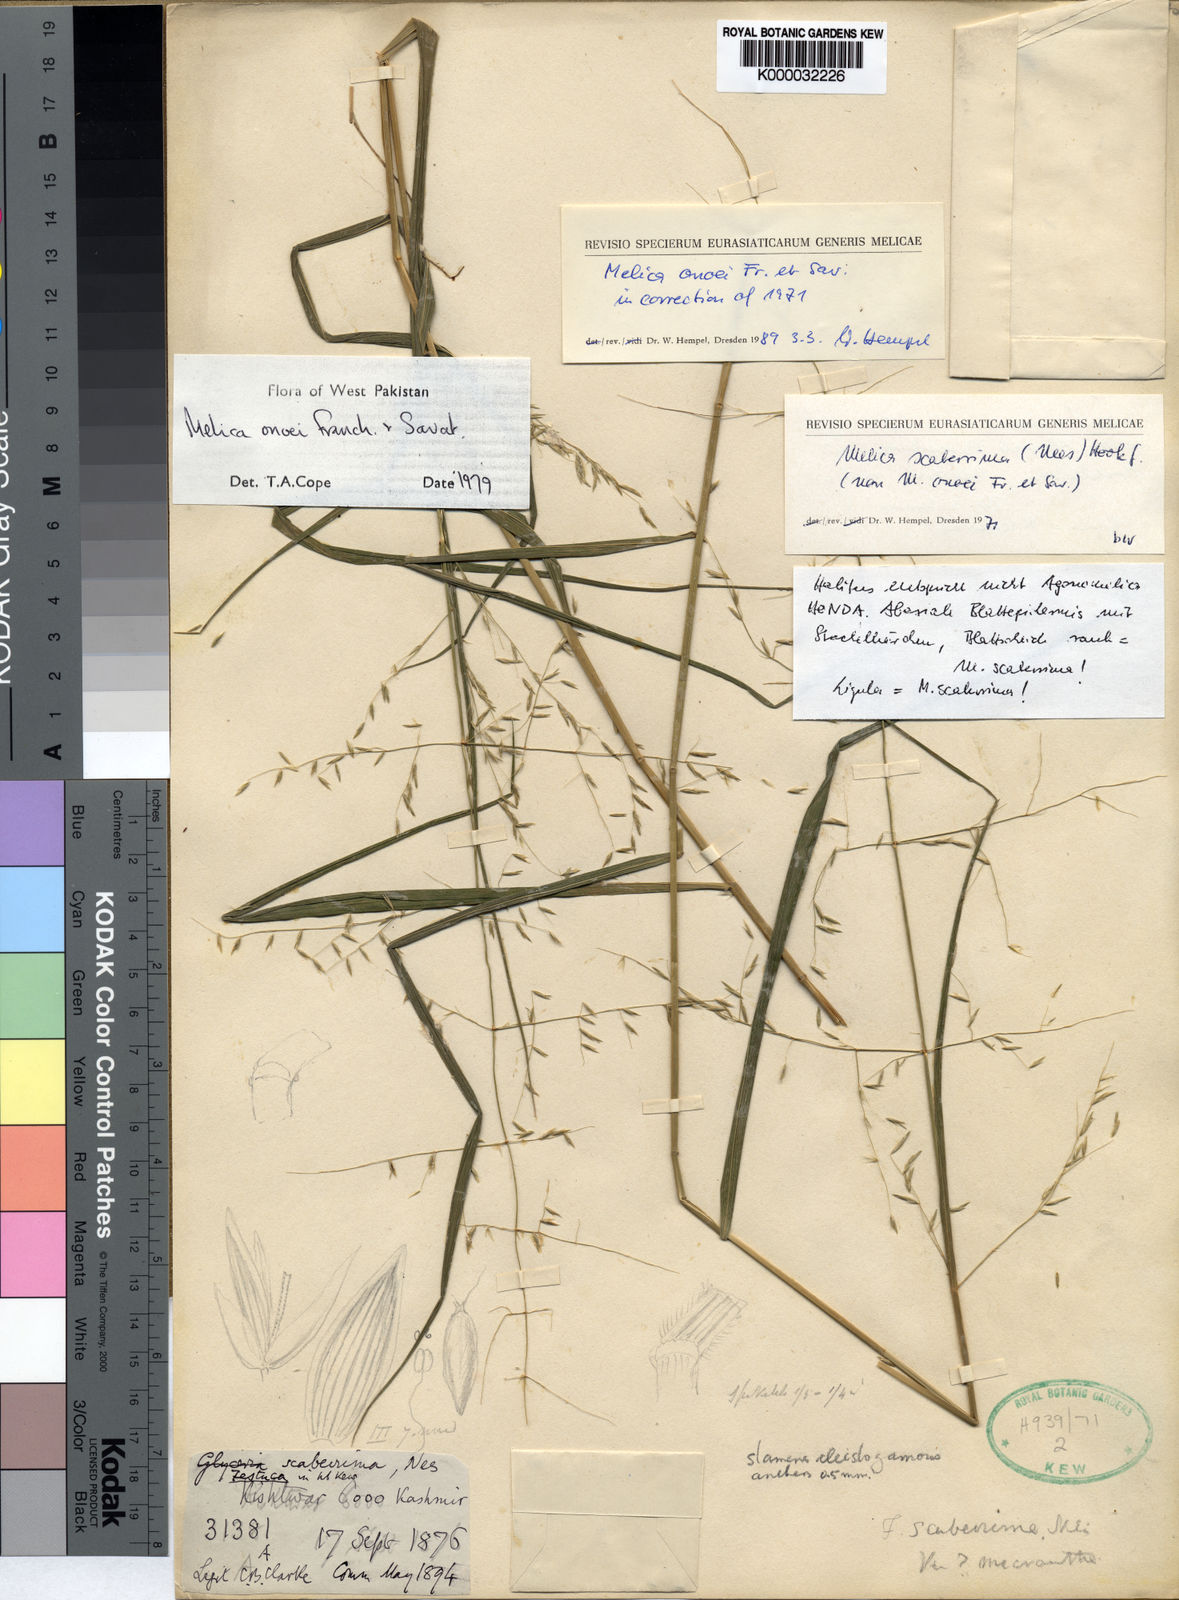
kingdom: Plantae
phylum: Tracheophyta
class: Liliopsida
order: Poales
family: Poaceae
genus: Melica
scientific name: Melica onoei
